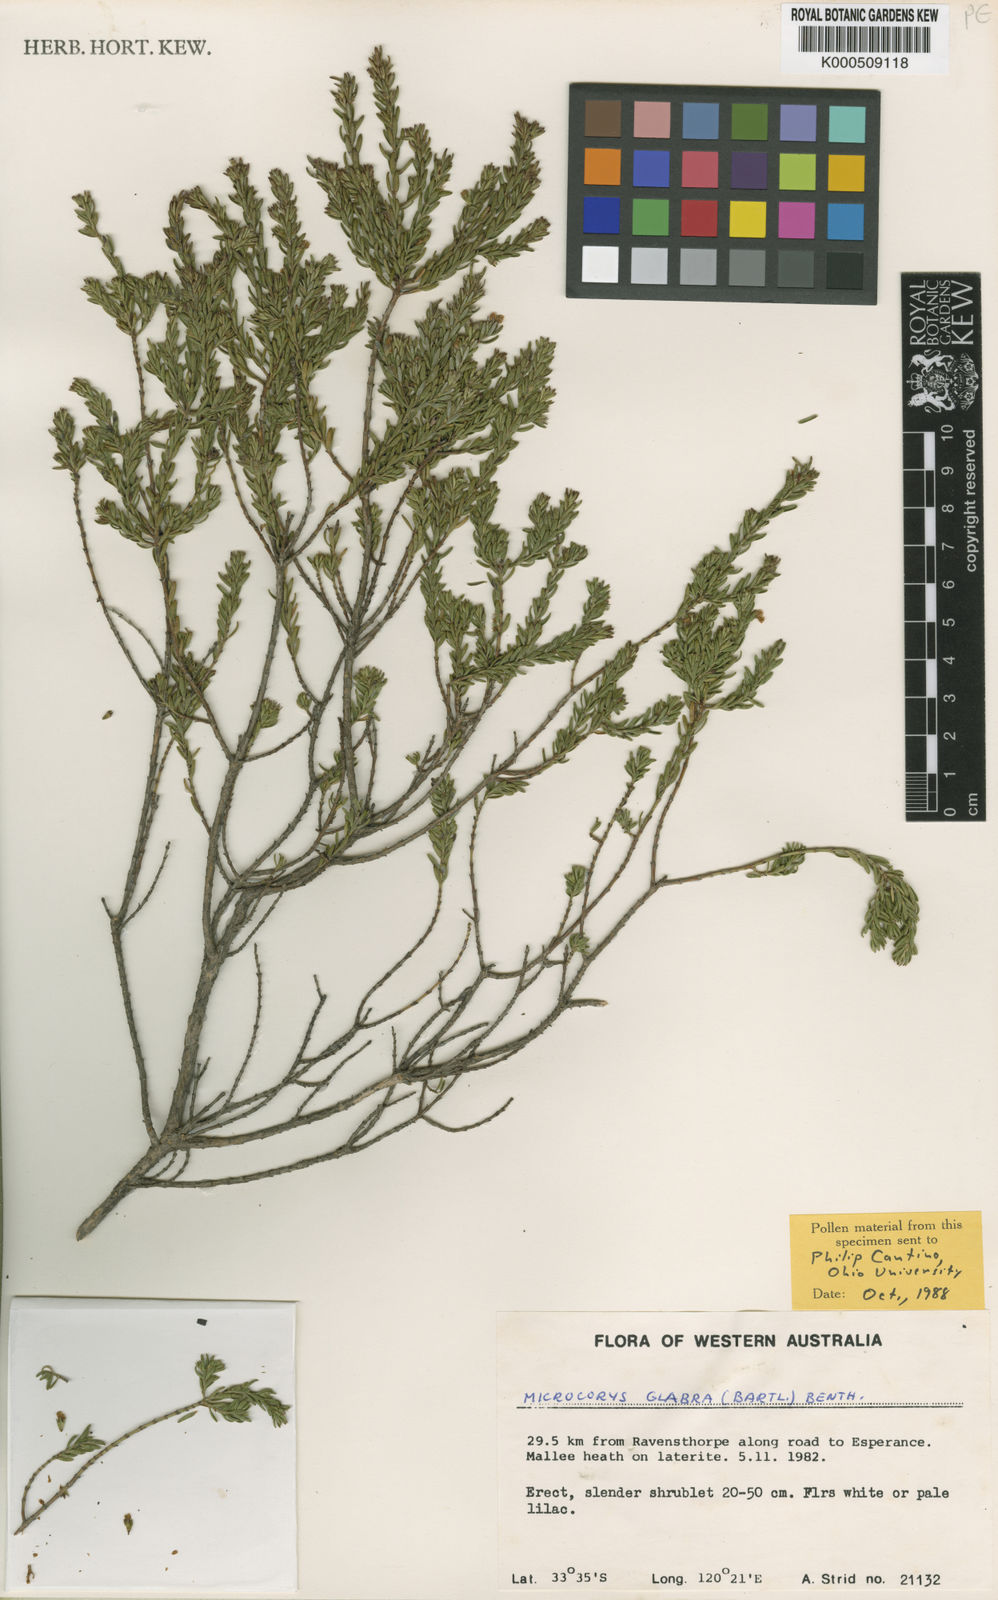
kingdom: Plantae
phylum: Tracheophyta
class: Magnoliopsida
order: Lamiales
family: Lamiaceae
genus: Microcorys
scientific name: Microcorys glabra
